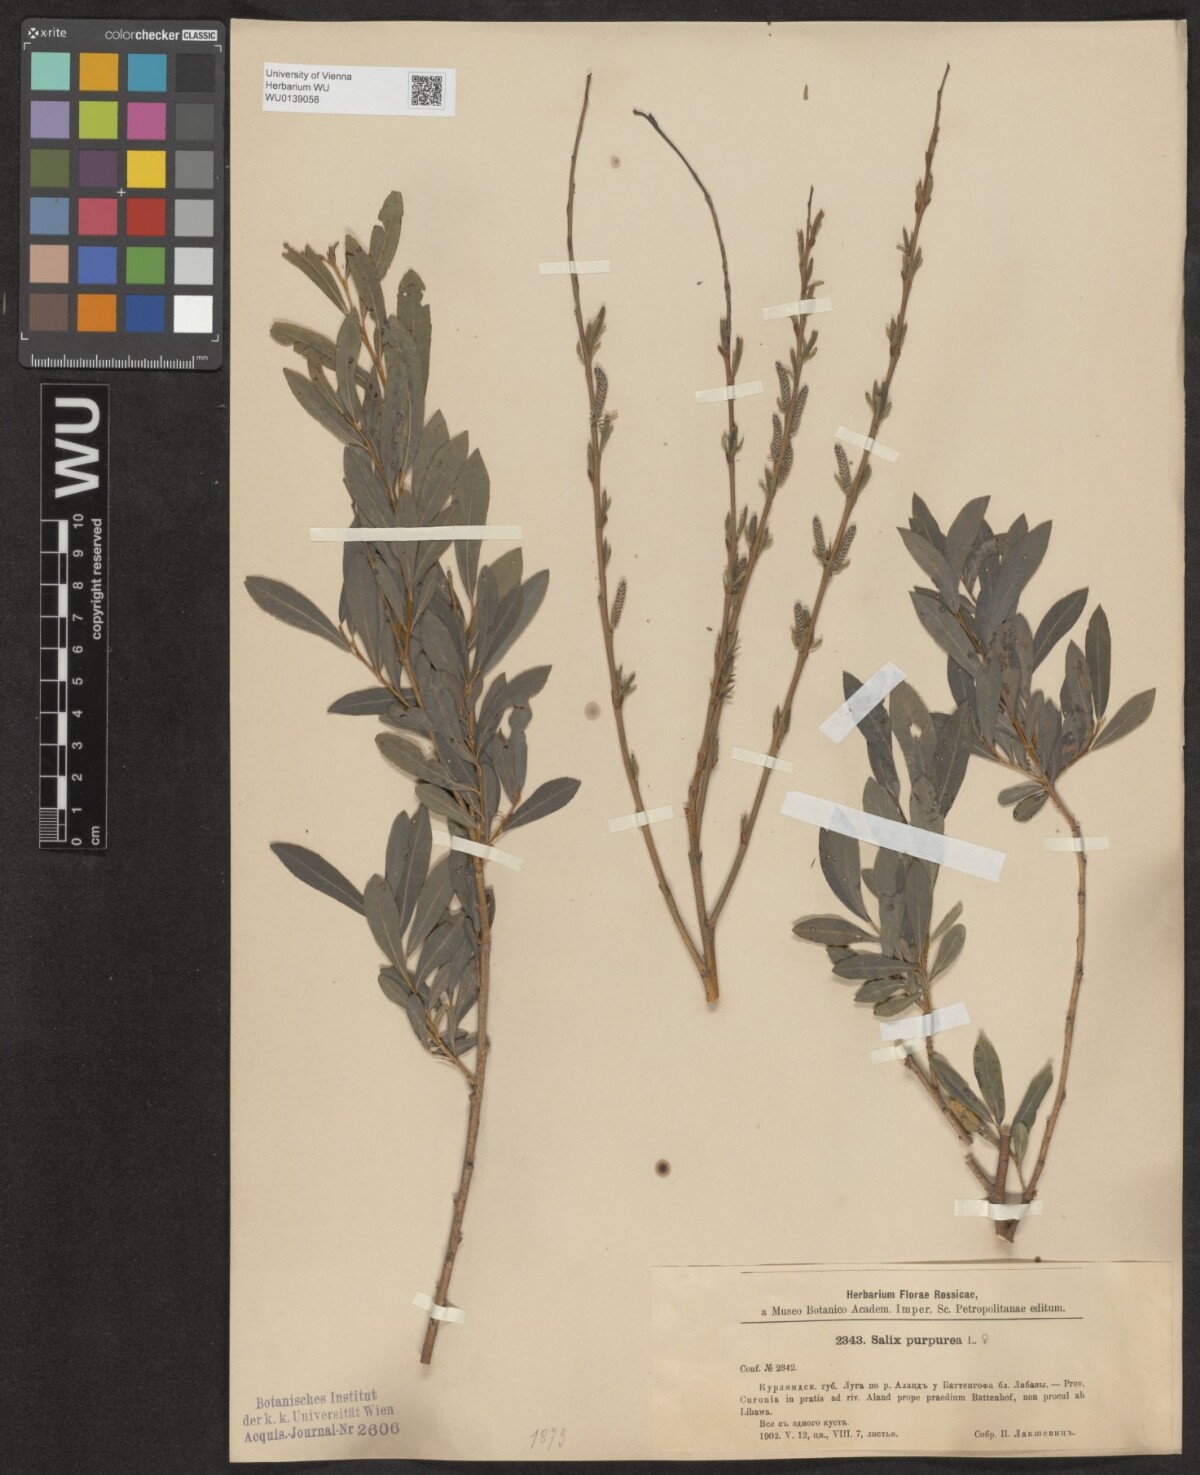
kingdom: Plantae
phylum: Tracheophyta
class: Magnoliopsida
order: Malpighiales
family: Salicaceae
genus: Salix
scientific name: Salix purpurea
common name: Purple willow
